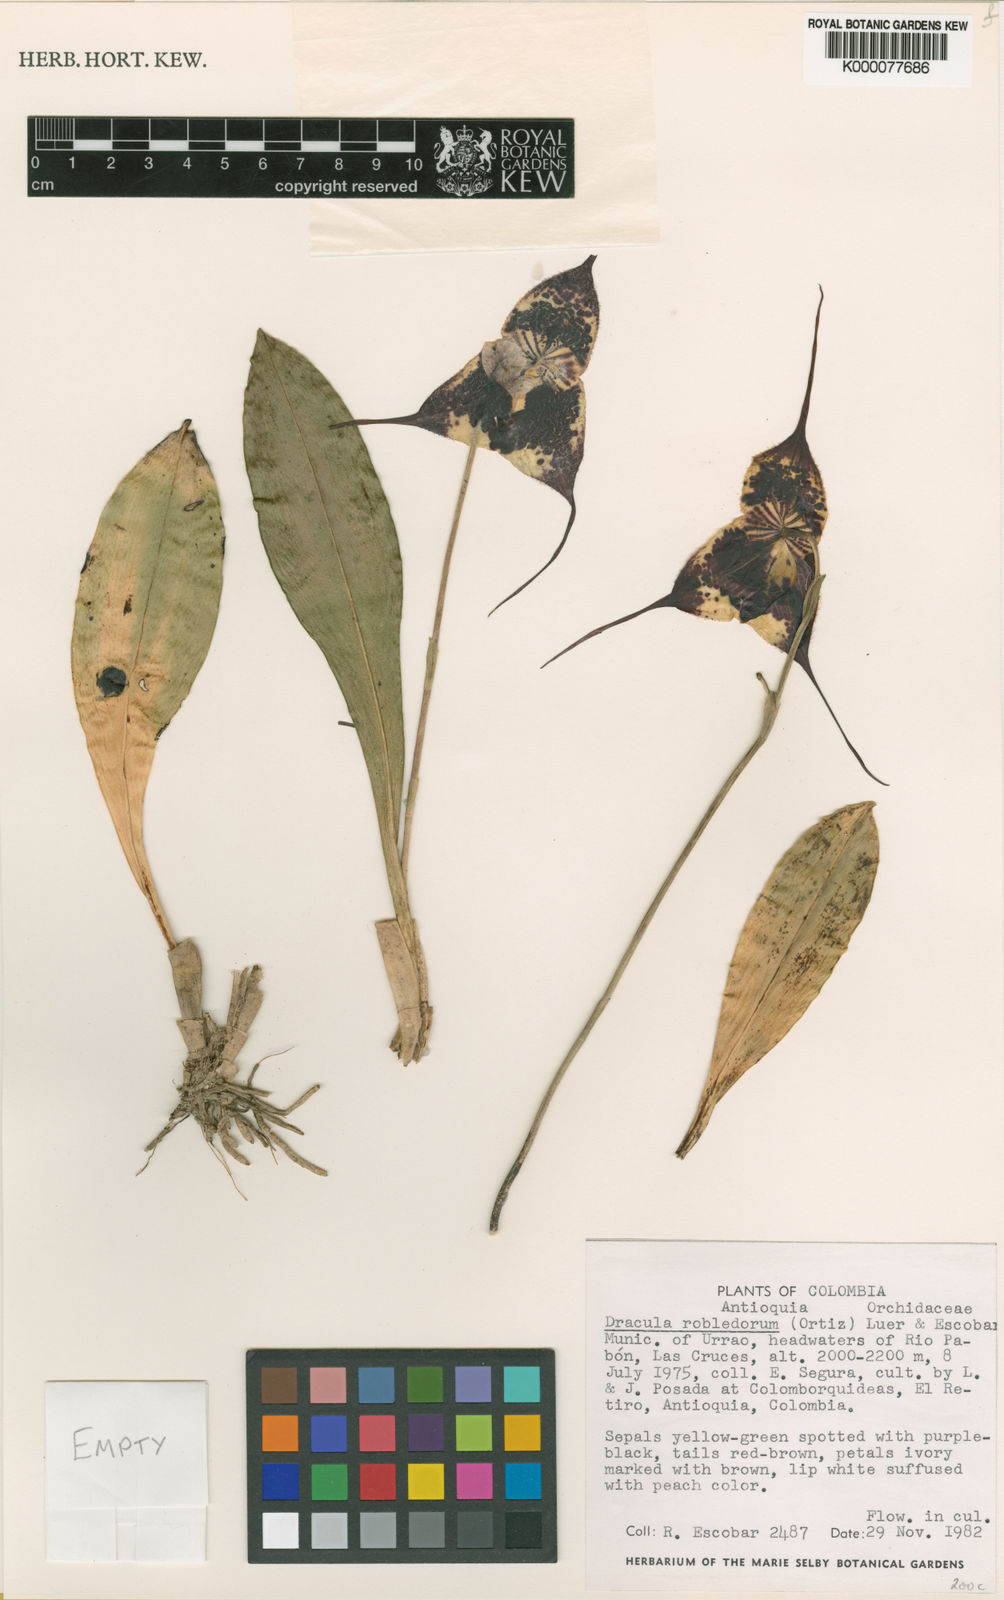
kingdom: Plantae
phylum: Tracheophyta
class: Liliopsida
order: Asparagales
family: Orchidaceae
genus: Dracula
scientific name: Dracula robledorum
